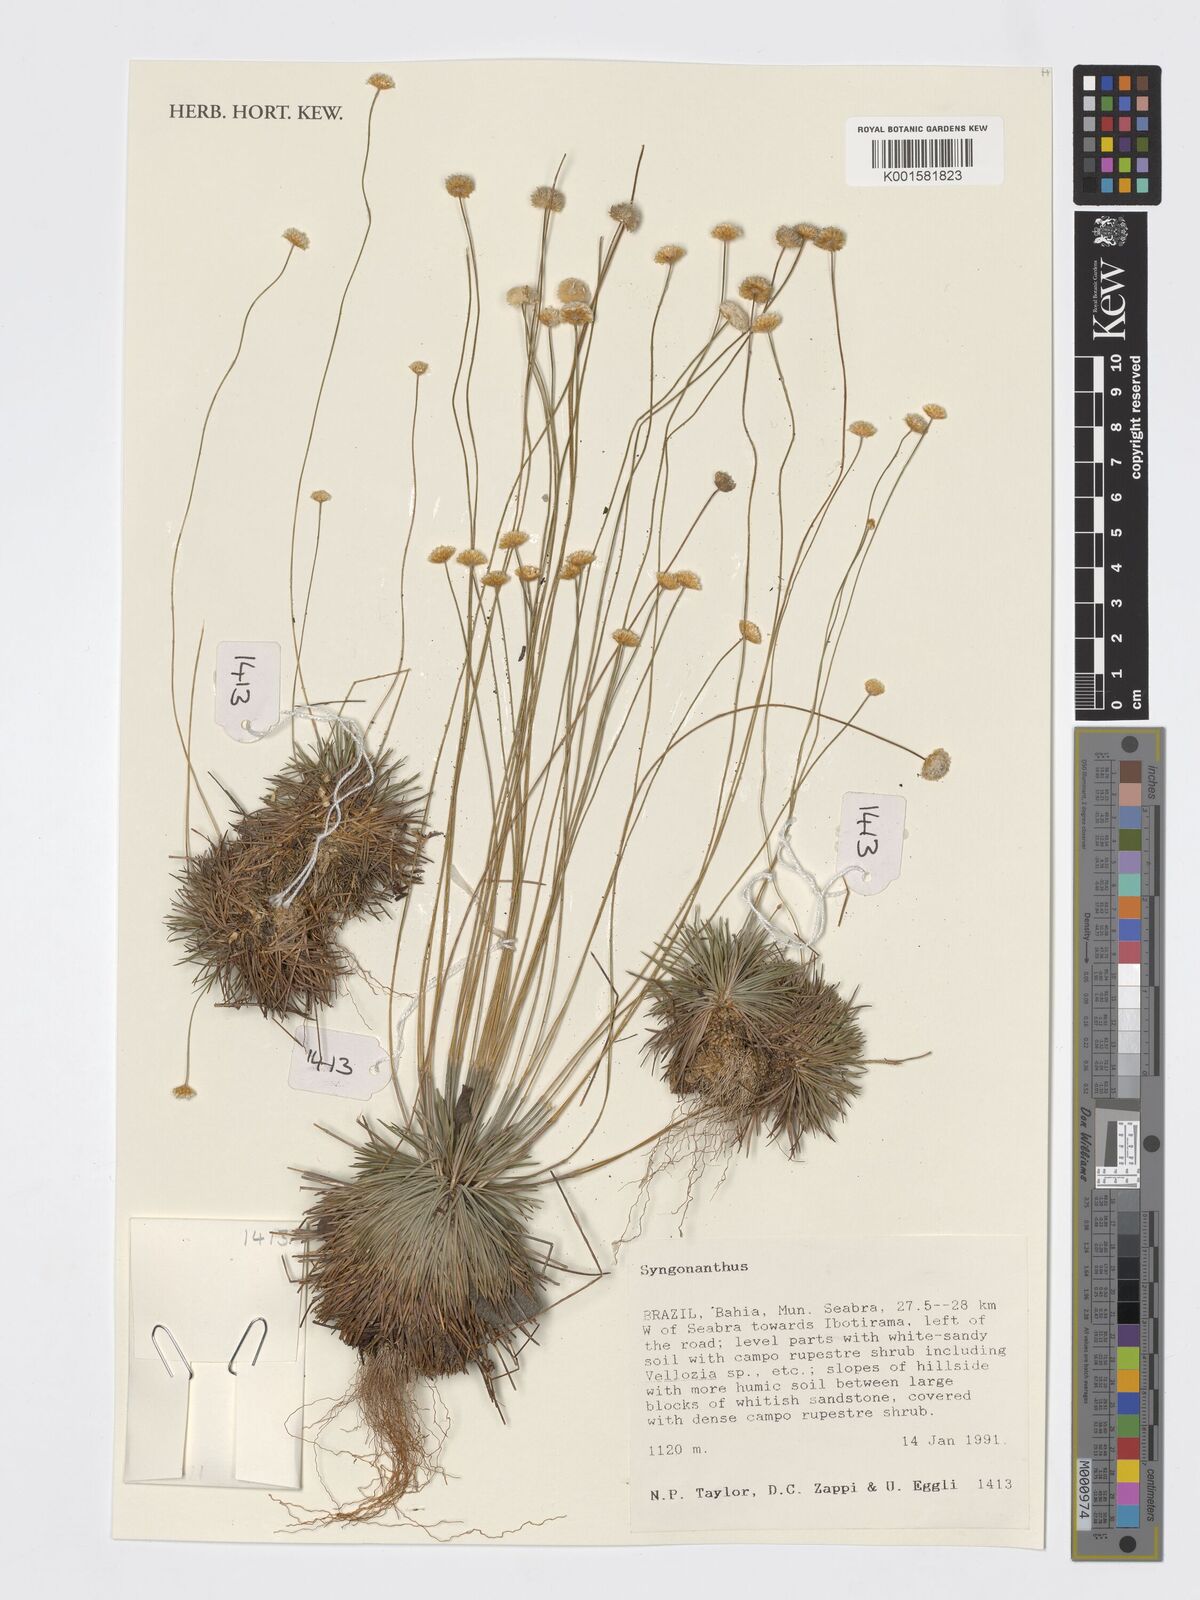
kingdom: Plantae
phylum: Tracheophyta
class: Liliopsida
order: Poales
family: Eriocaulaceae
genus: Syngonanthus
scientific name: Syngonanthus
